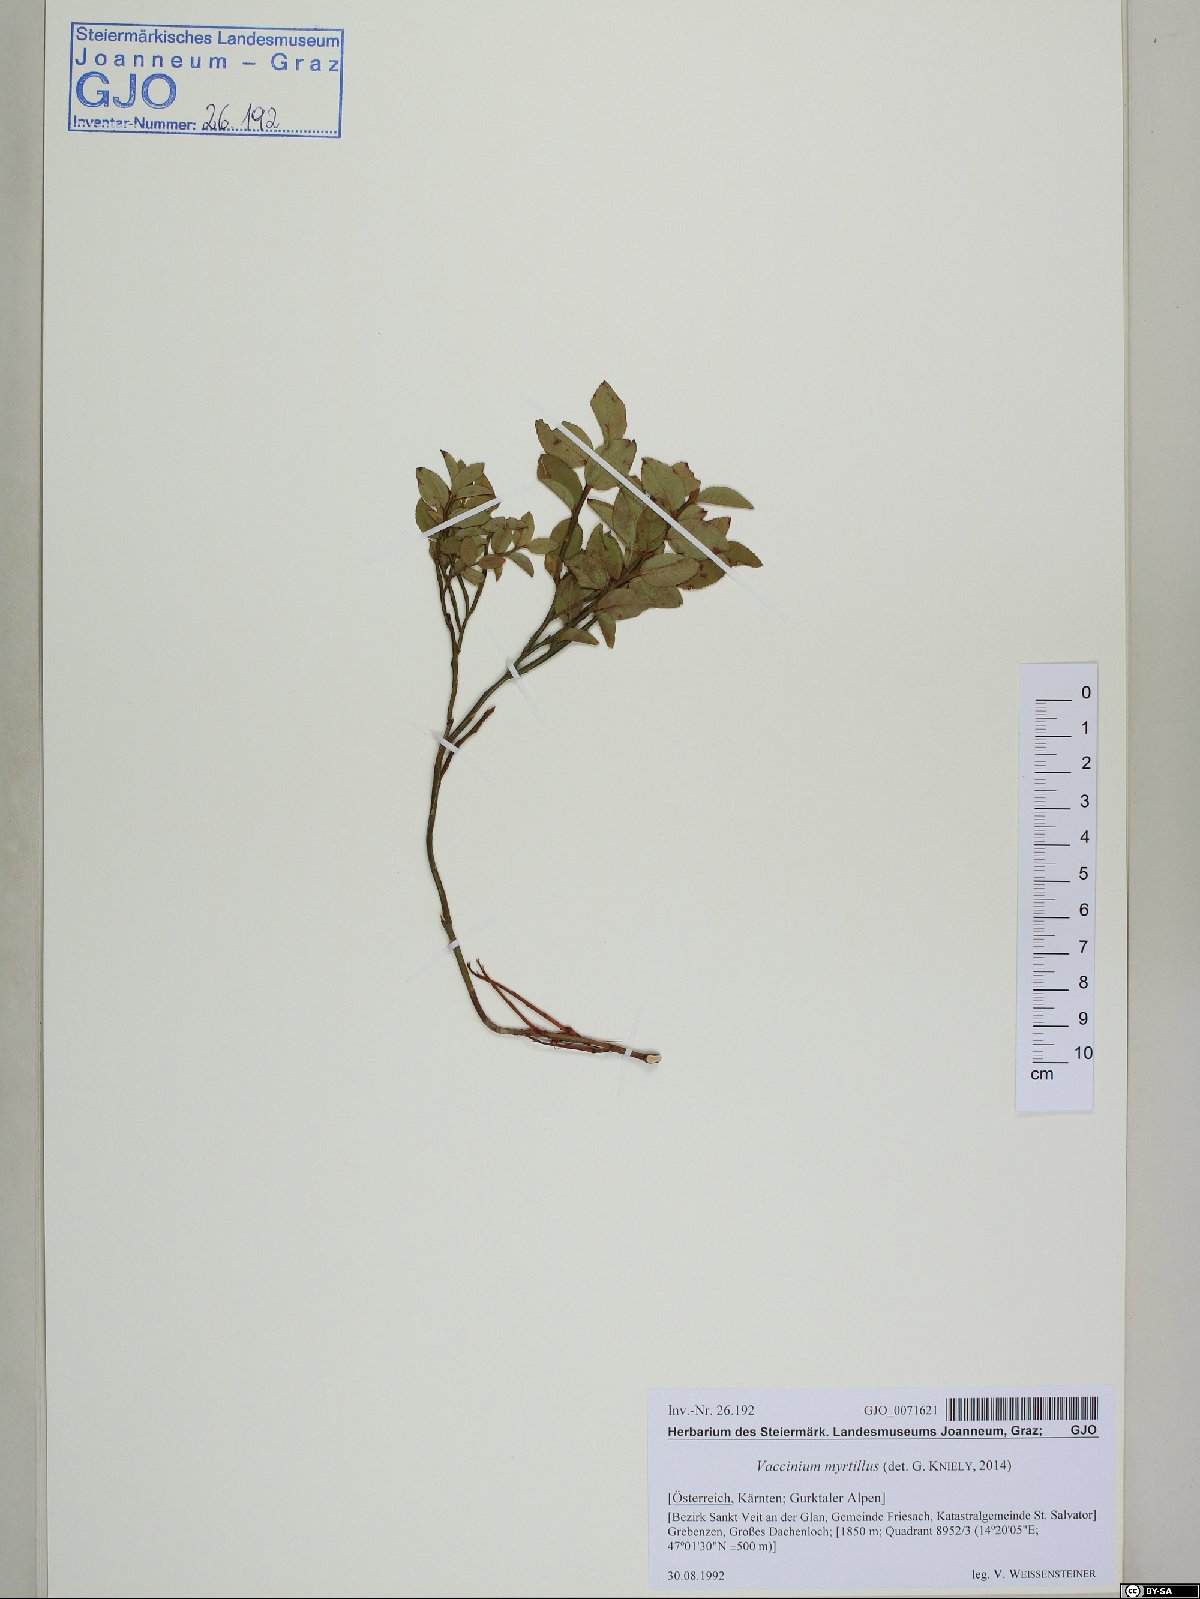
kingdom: Plantae
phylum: Tracheophyta
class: Magnoliopsida
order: Ericales
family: Ericaceae
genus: Vaccinium
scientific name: Vaccinium myrtillus
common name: Bilberry
